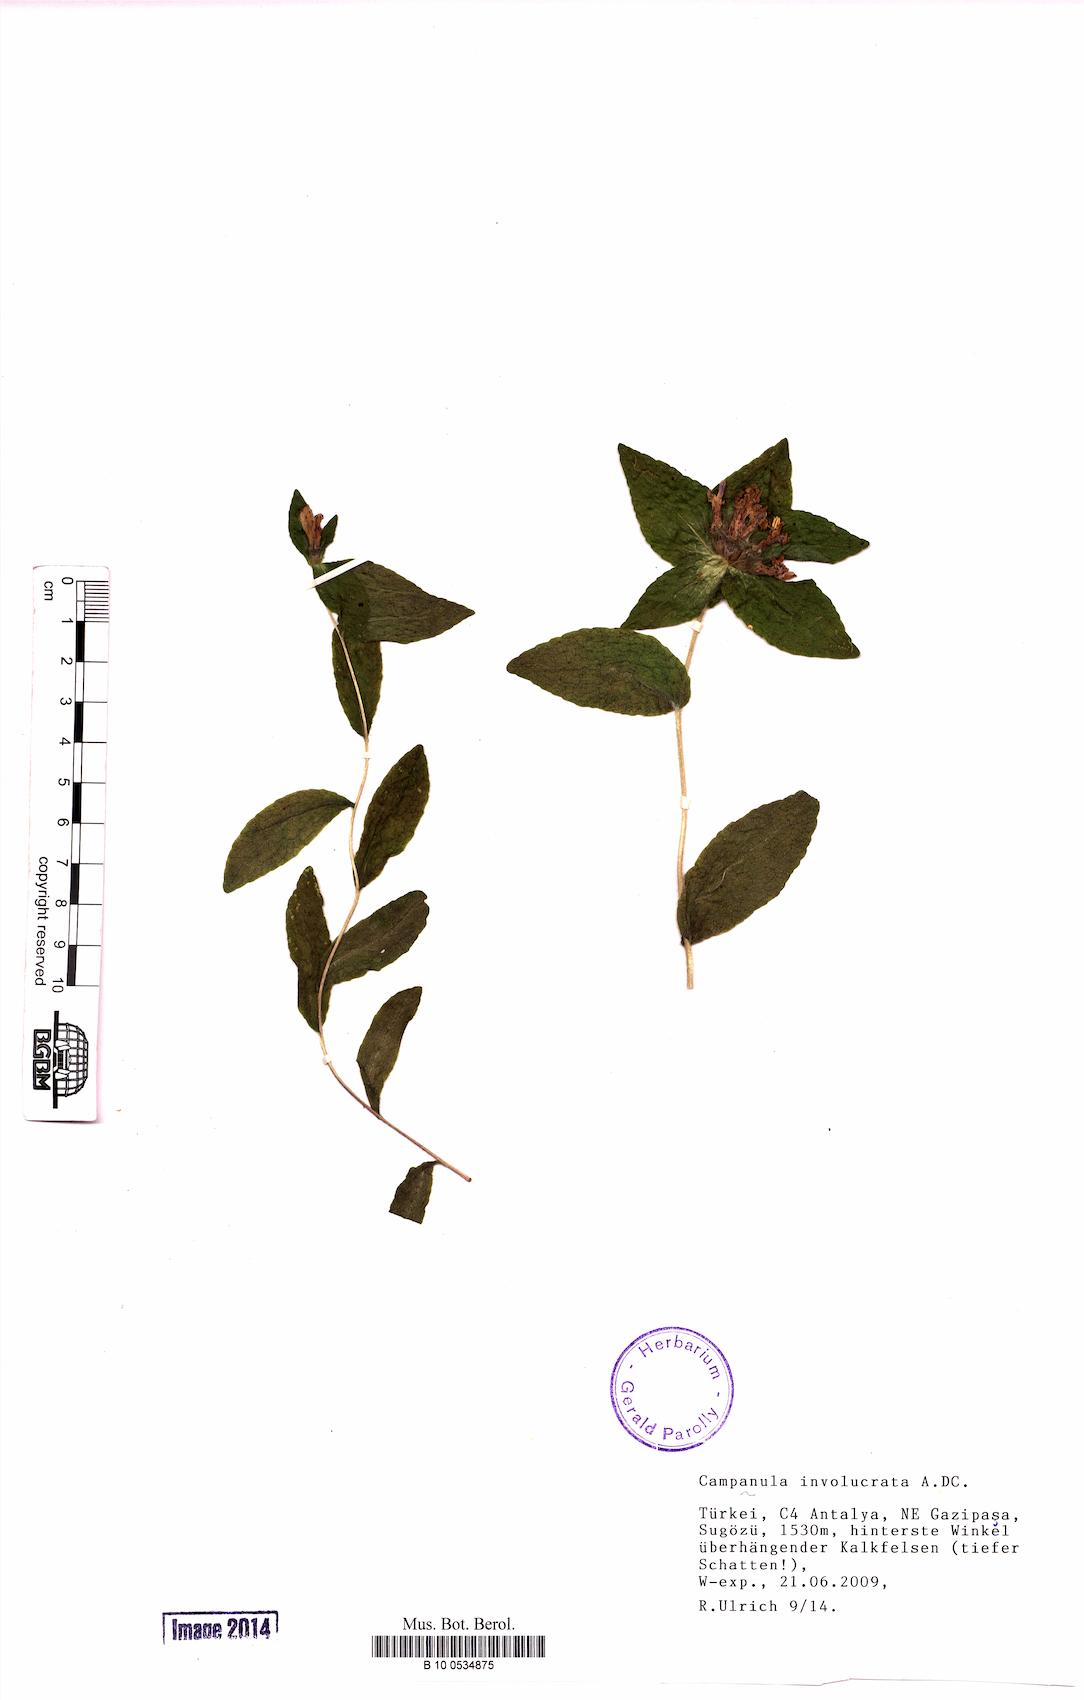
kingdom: Plantae
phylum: Tracheophyta
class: Magnoliopsida
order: Asterales
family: Campanulaceae
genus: Campanula
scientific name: Campanula involucrata
